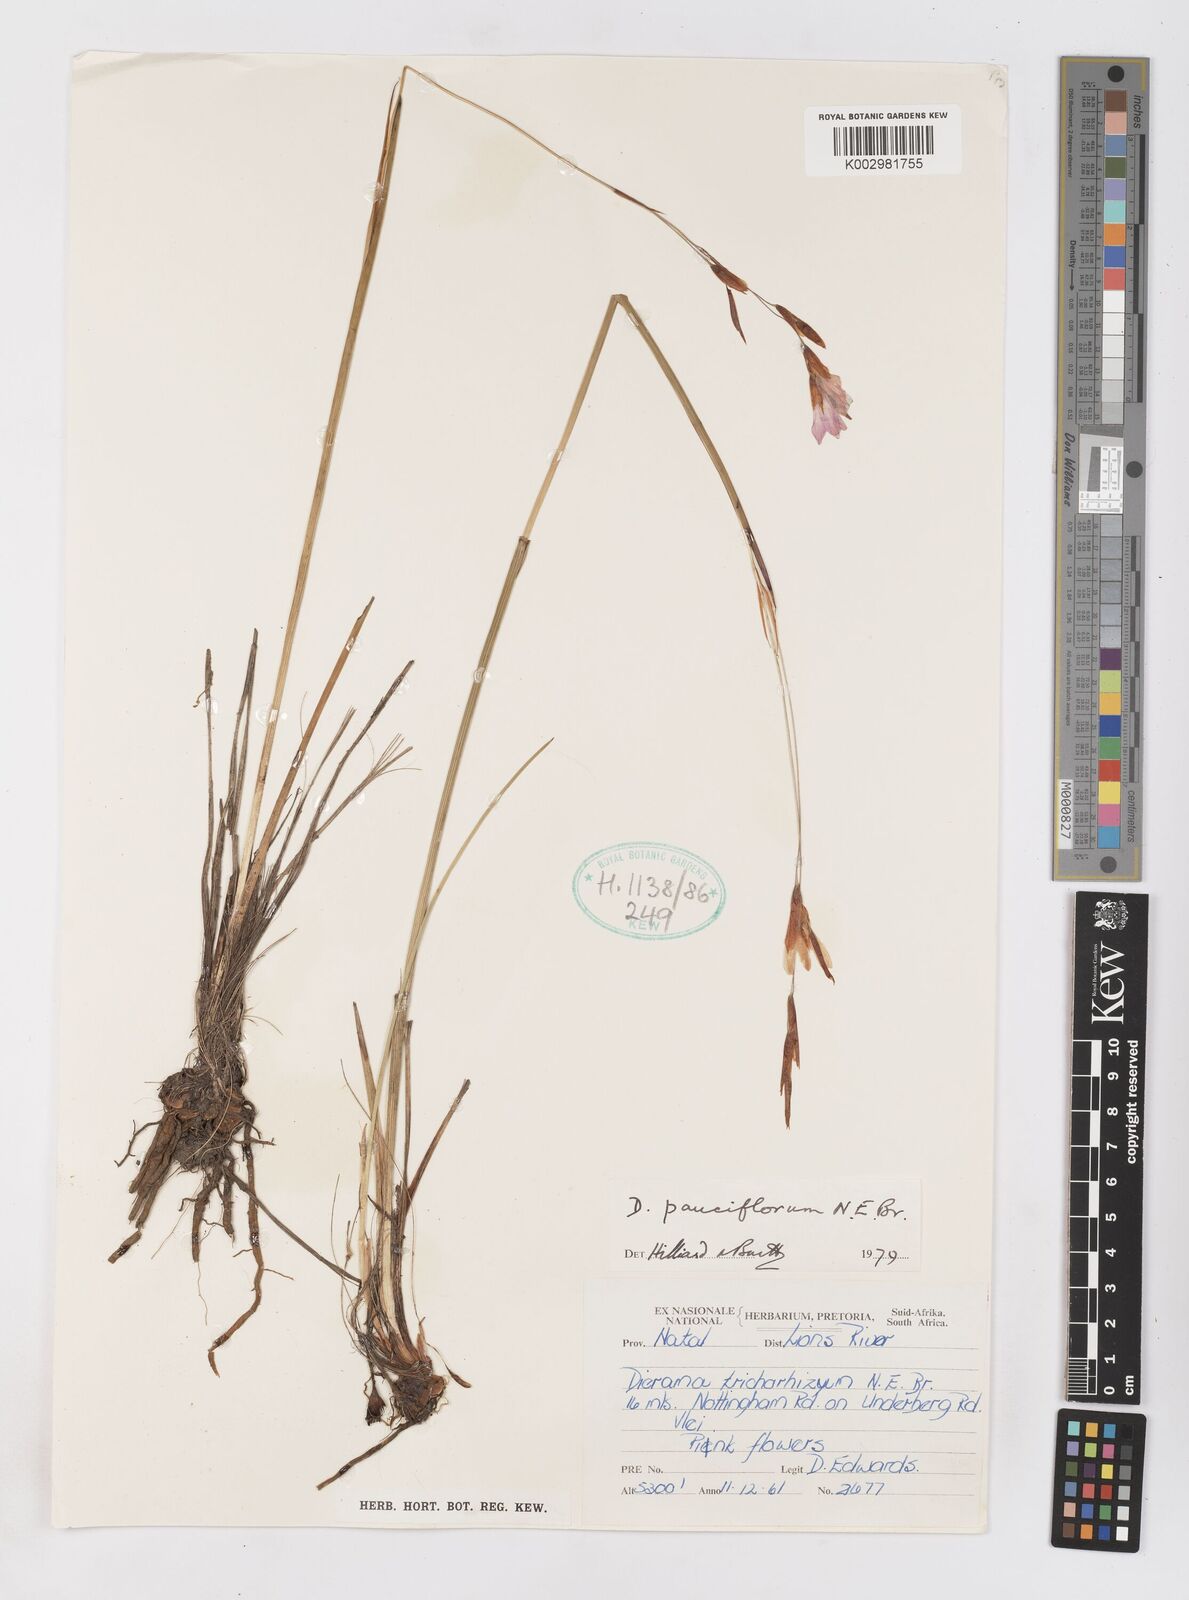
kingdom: Plantae
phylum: Tracheophyta
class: Liliopsida
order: Asparagales
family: Iridaceae
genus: Dierama
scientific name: Dierama pauciflorum
